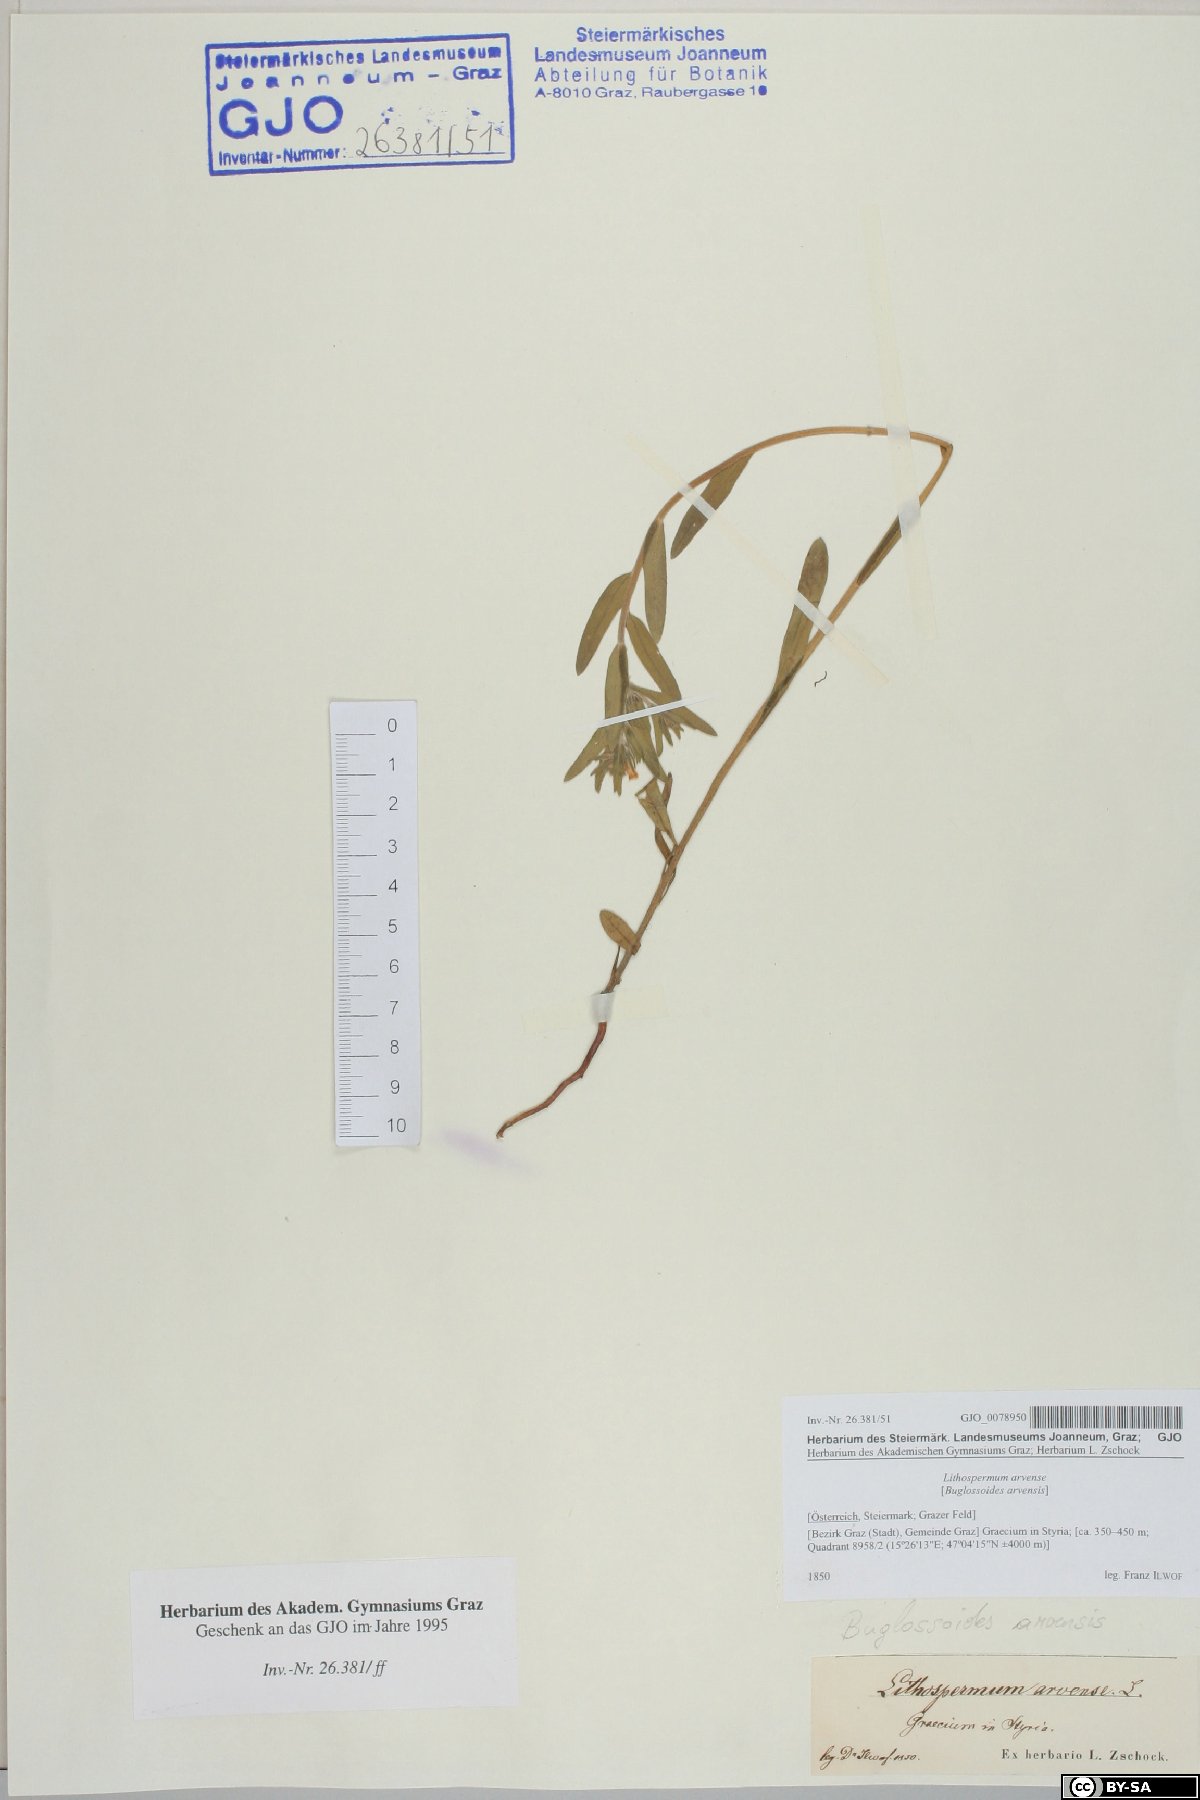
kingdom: Plantae
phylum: Tracheophyta
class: Magnoliopsida
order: Boraginales
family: Boraginaceae
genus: Buglossoides
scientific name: Buglossoides arvensis
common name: Corn gromwell
